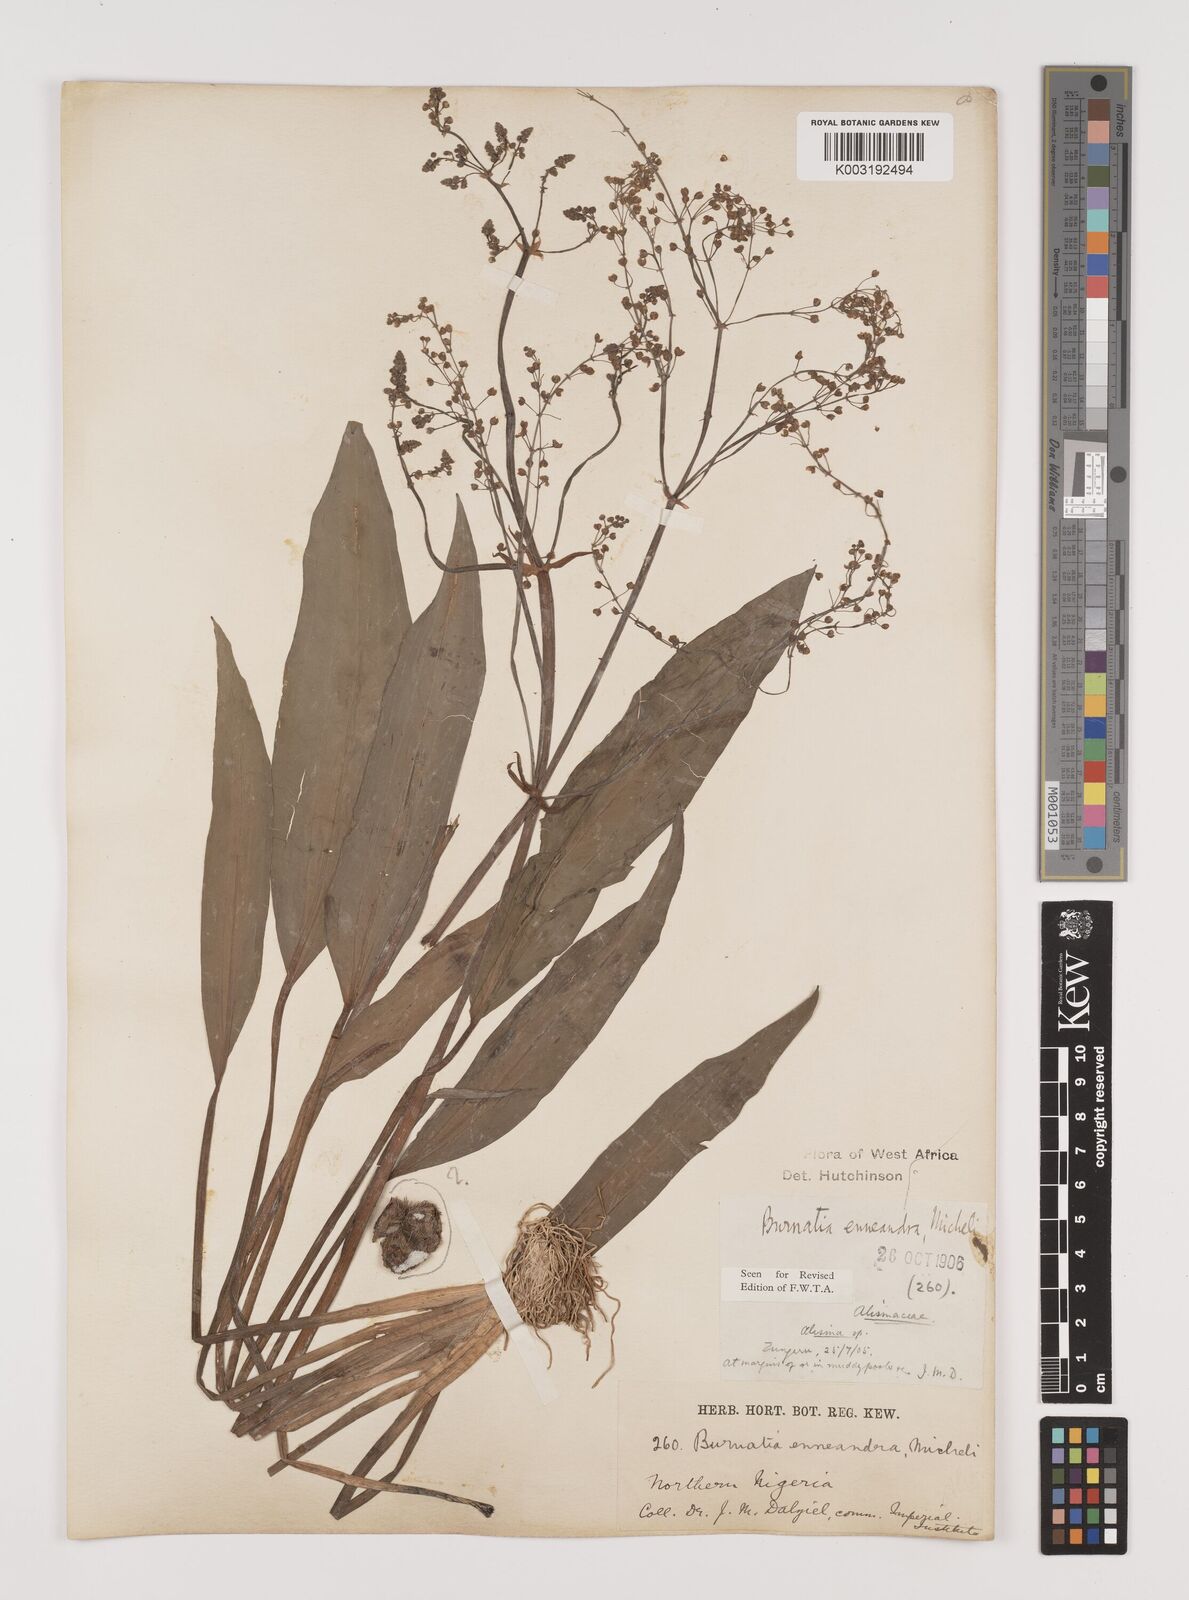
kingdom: Plantae
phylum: Tracheophyta
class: Liliopsida
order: Alismatales
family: Alismataceae
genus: Burnatia
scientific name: Burnatia enneandra
